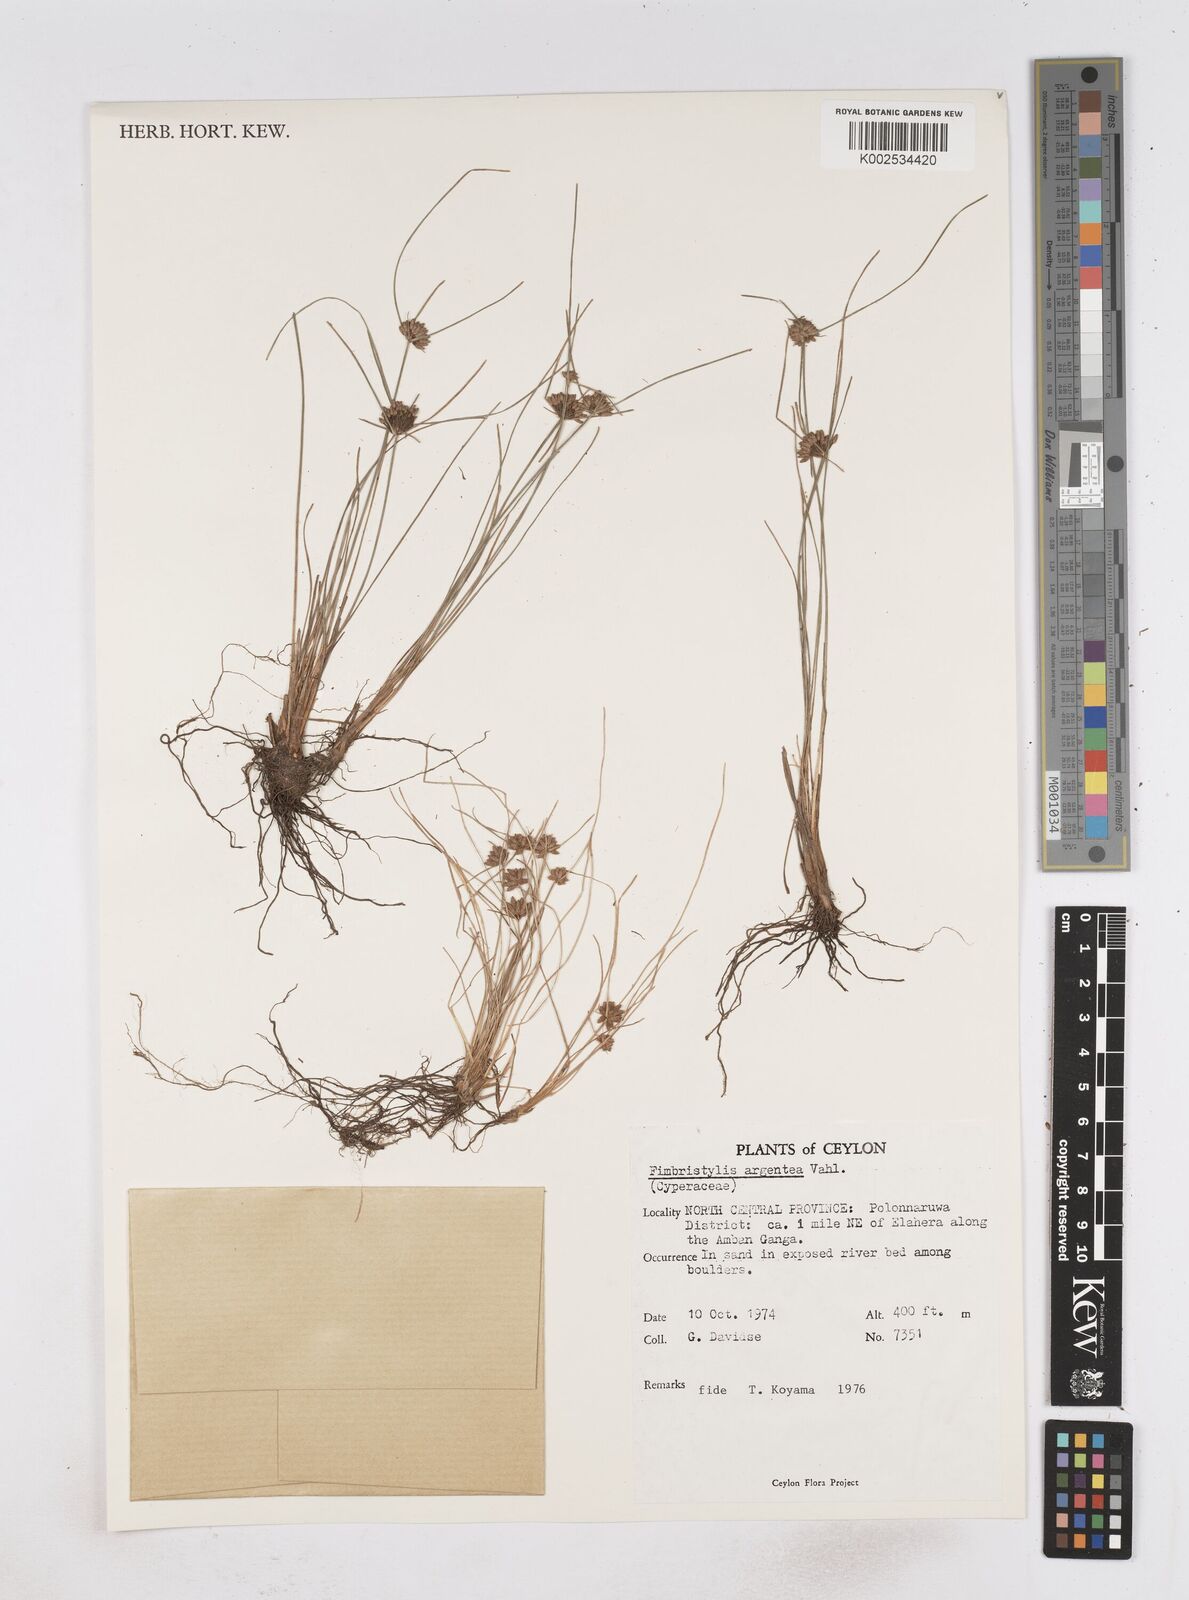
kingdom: Plantae
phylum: Tracheophyta
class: Liliopsida
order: Poales
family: Cyperaceae
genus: Fimbristylis
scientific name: Fimbristylis argentea
